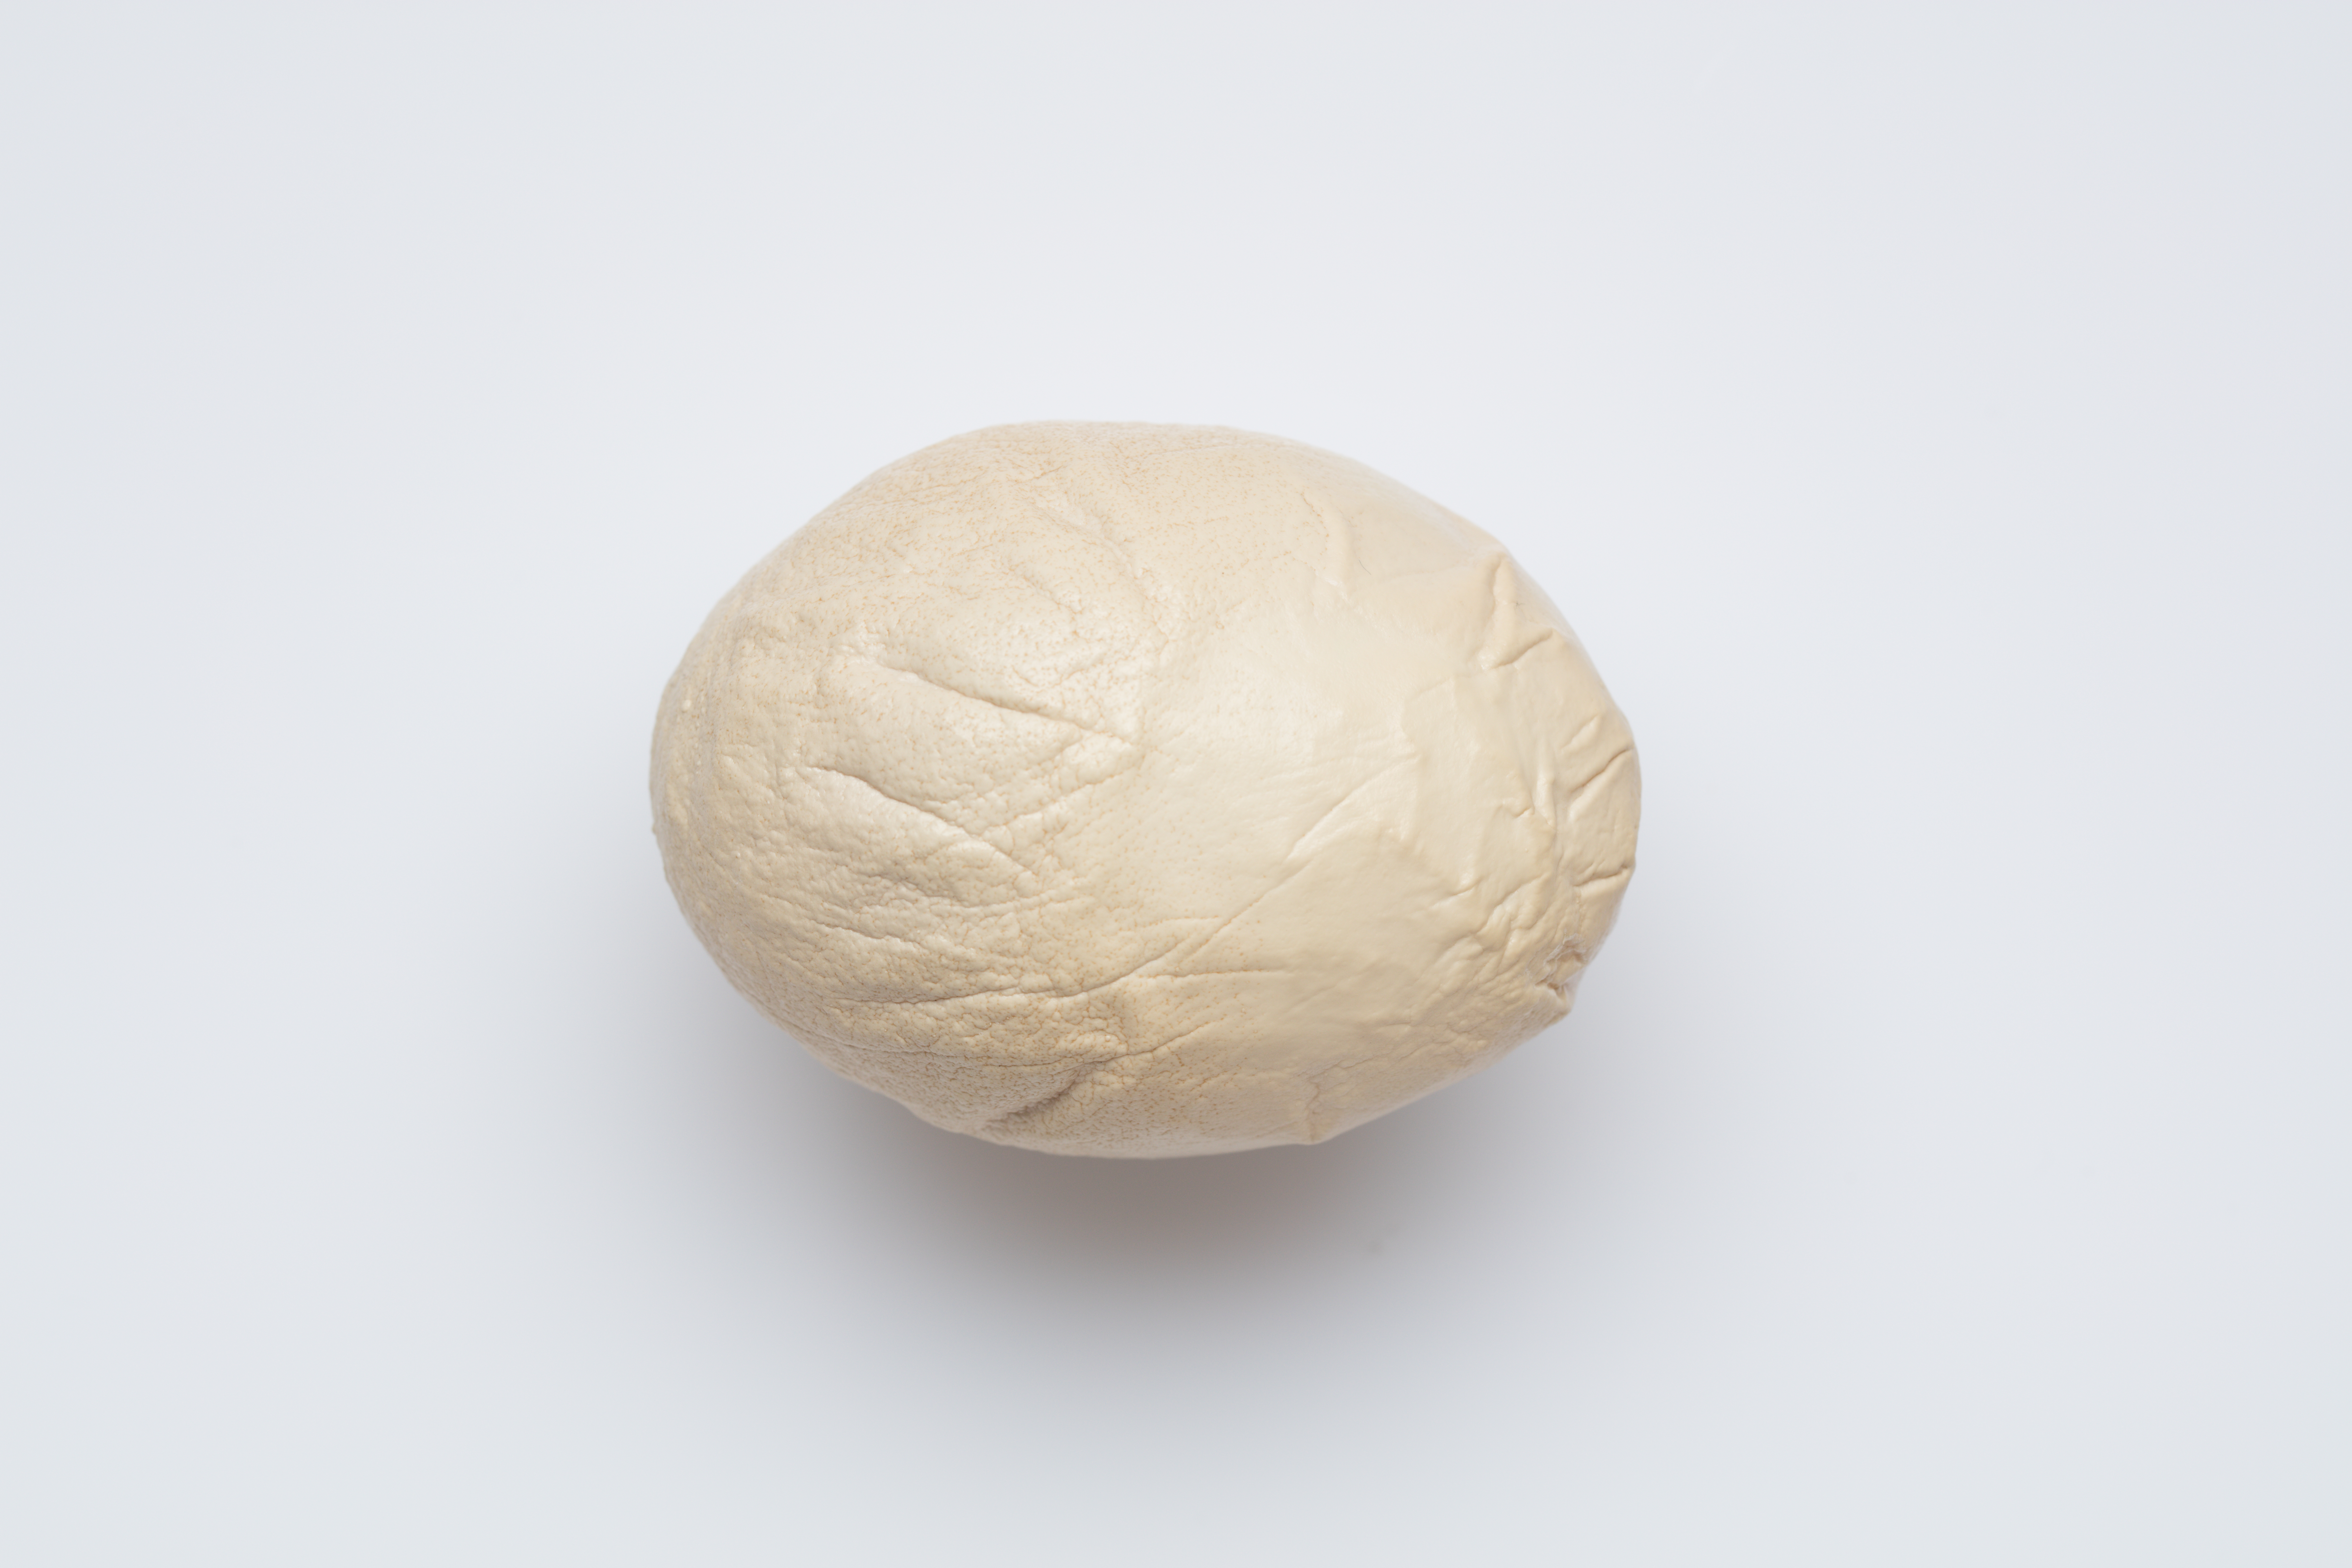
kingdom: Animalia
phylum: Chordata
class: Aves
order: Galliformes
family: Phasianidae
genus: Gallus
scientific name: Gallus gallus
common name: Red junglefowl
